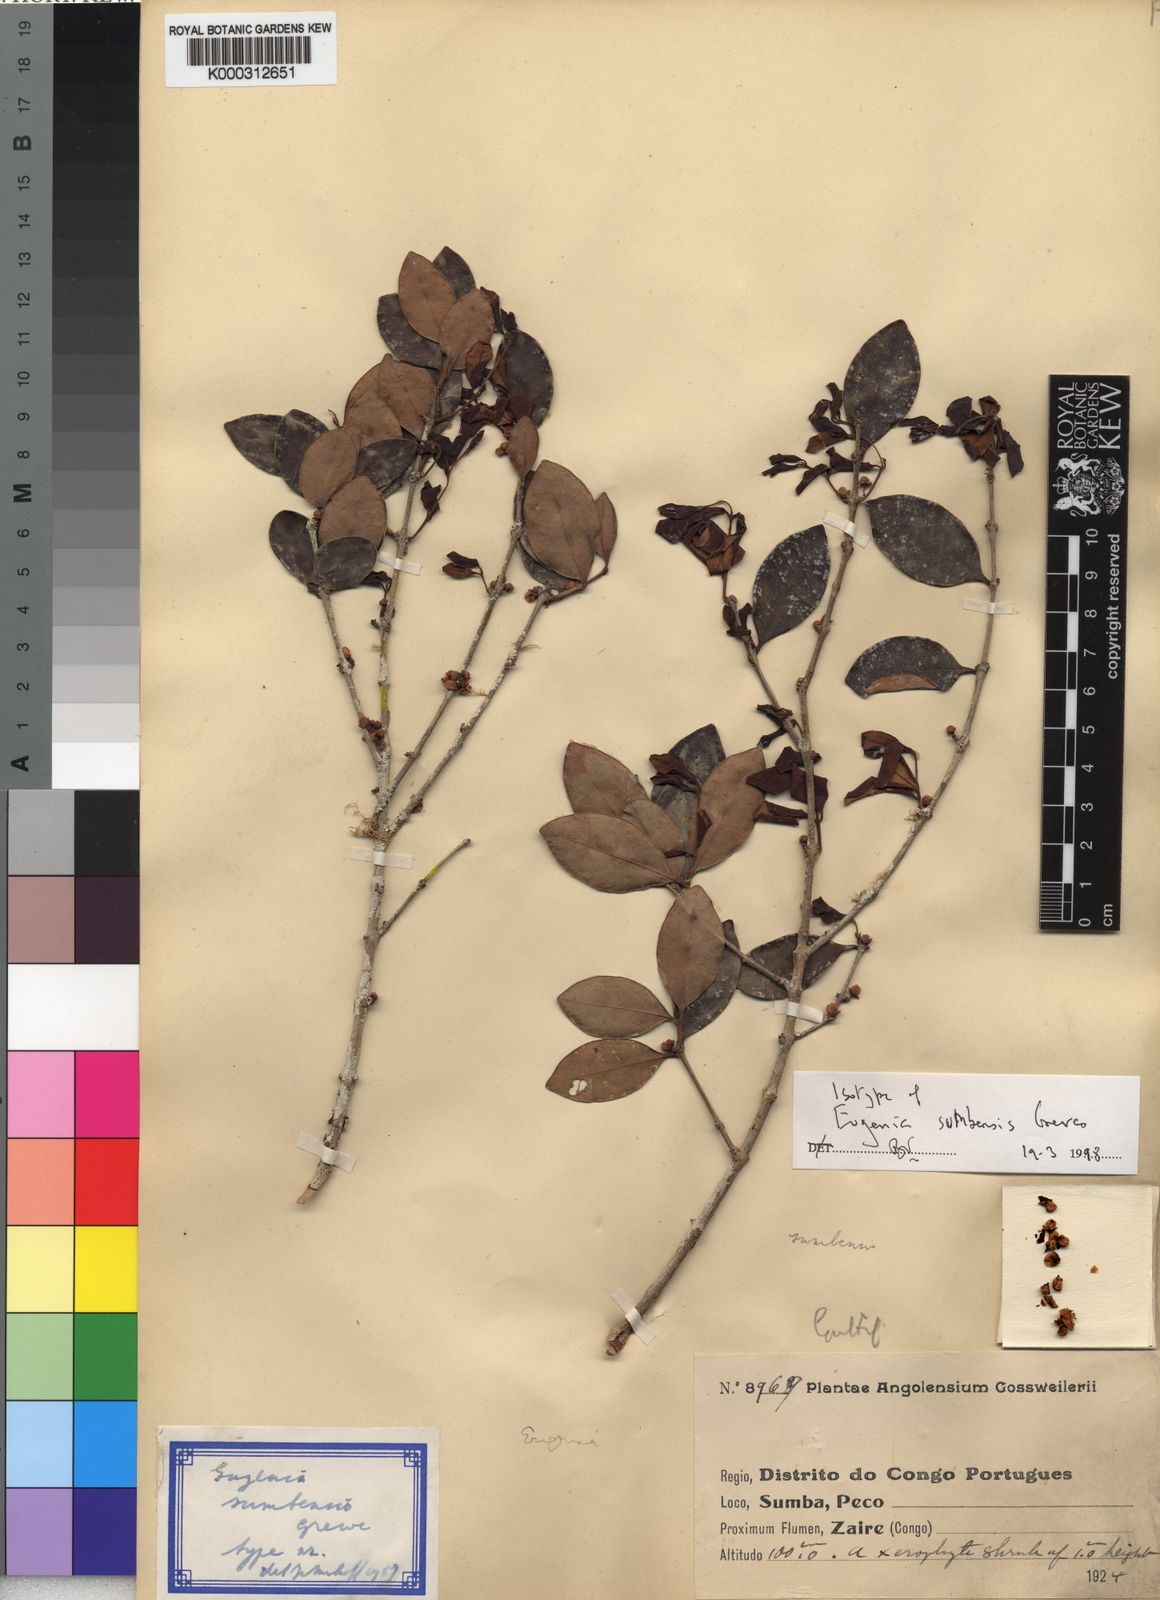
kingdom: Plantae
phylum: Tracheophyta
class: Magnoliopsida
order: Myrtales
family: Myrtaceae
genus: Eugenia
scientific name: Eugenia sumbensis
